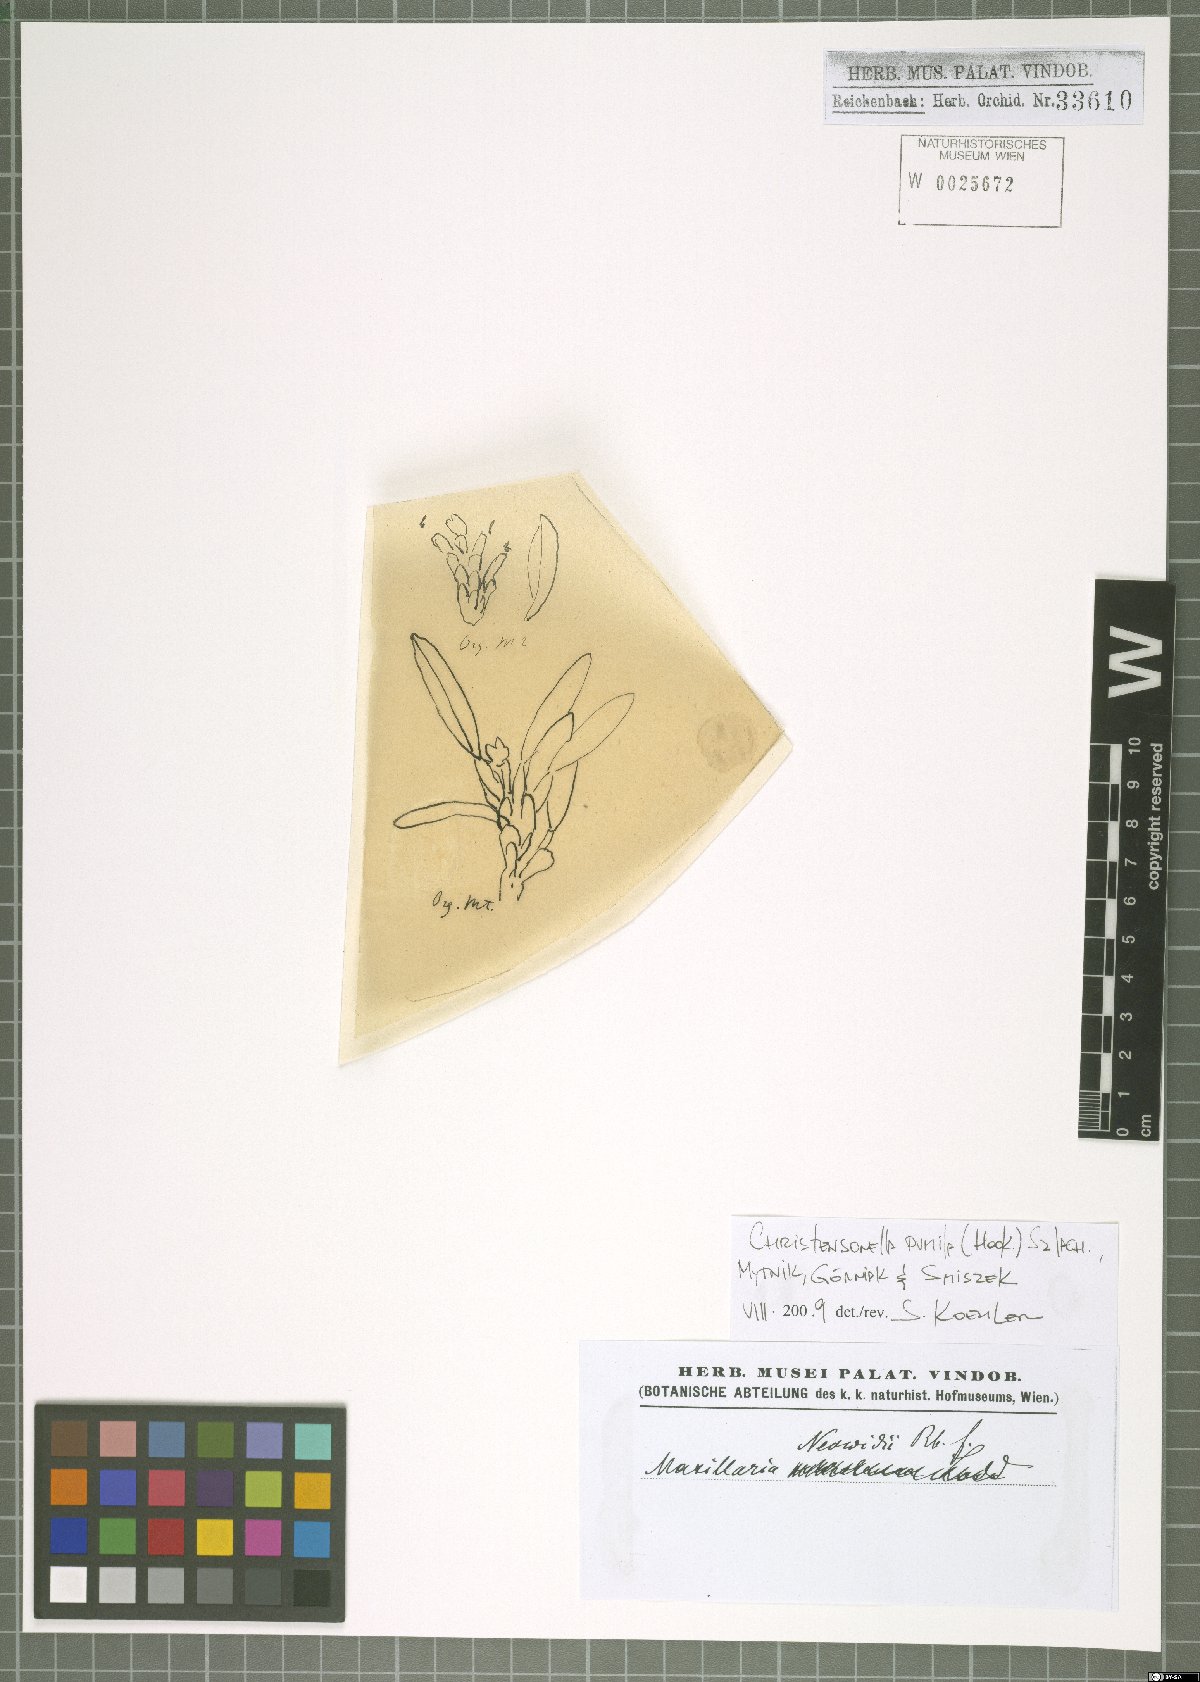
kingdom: Plantae
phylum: Tracheophyta
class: Liliopsida
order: Asparagales
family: Orchidaceae
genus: Maxillaria
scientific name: Maxillaria pumila
